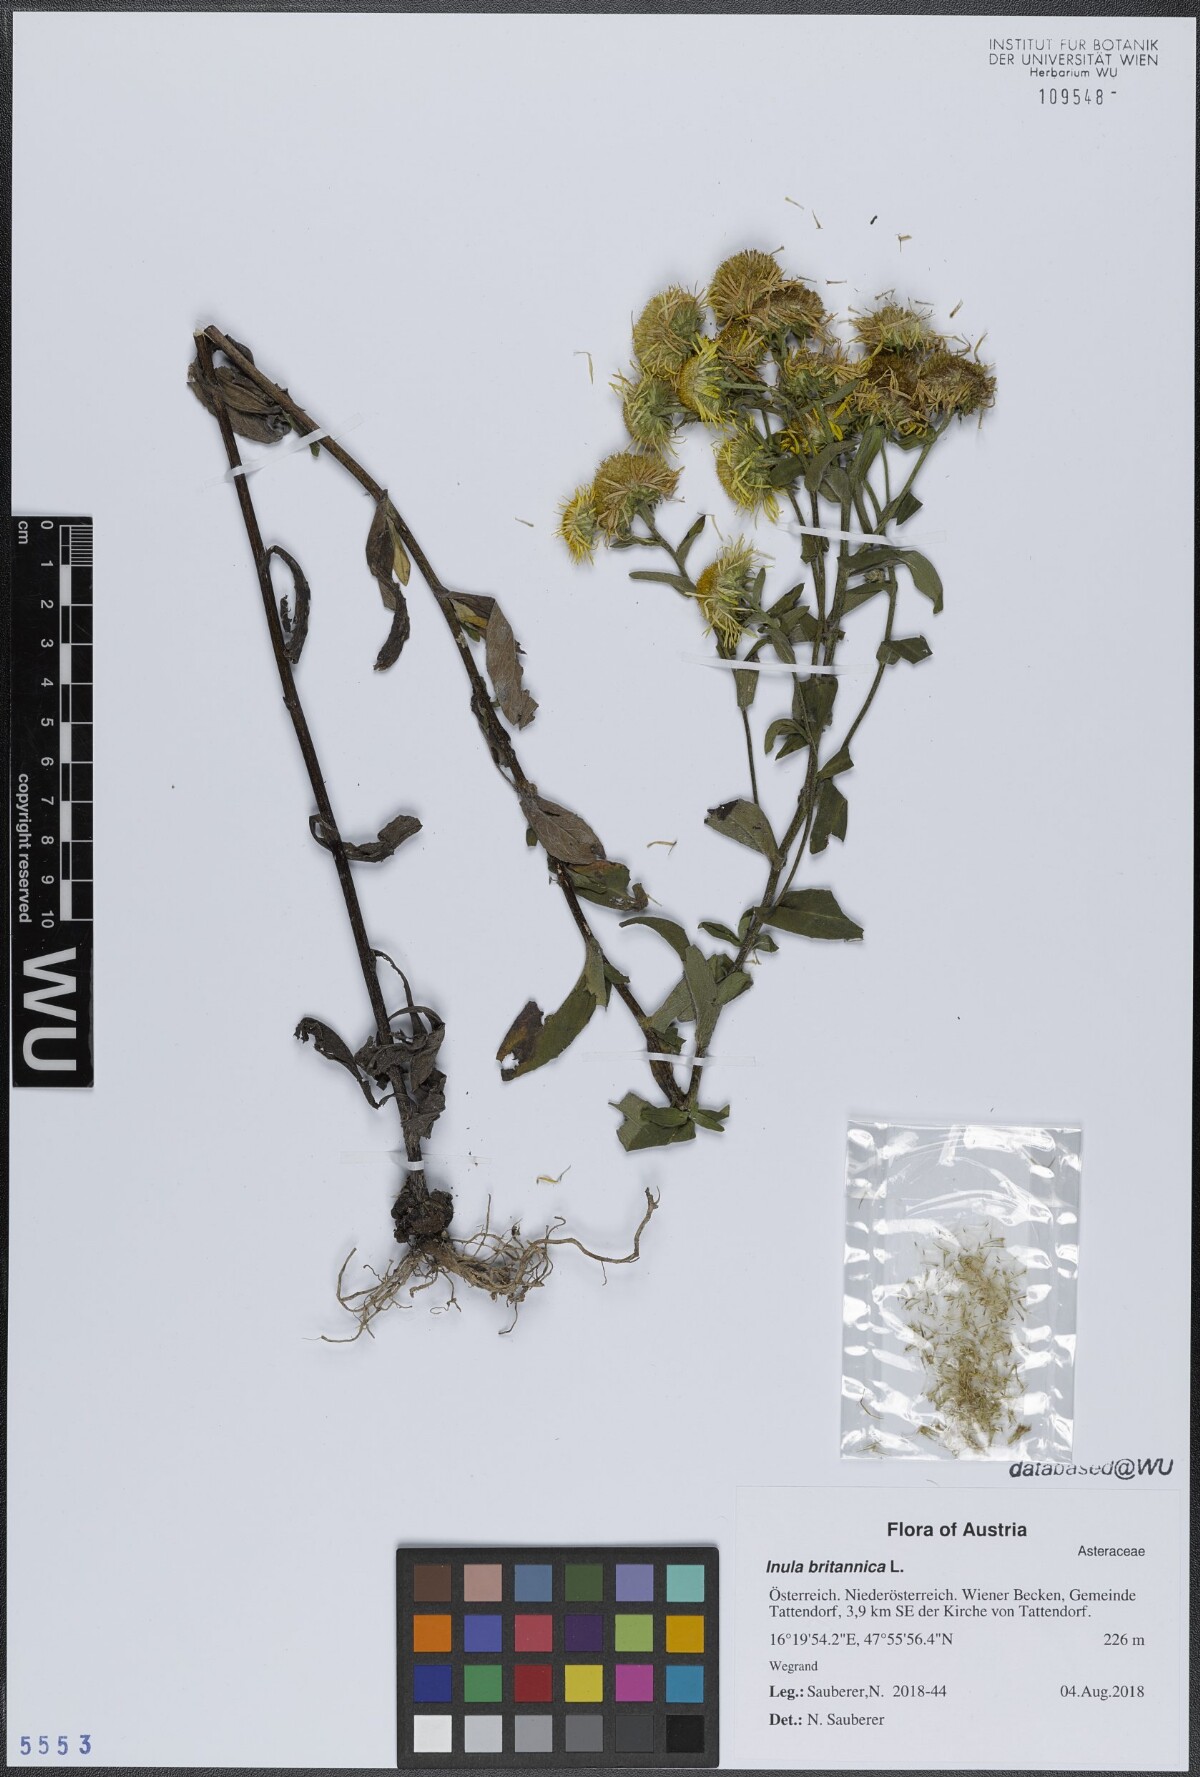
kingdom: Plantae
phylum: Tracheophyta
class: Magnoliopsida
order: Asterales
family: Asteraceae
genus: Pentanema
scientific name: Pentanema britannicum
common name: British elecampane
